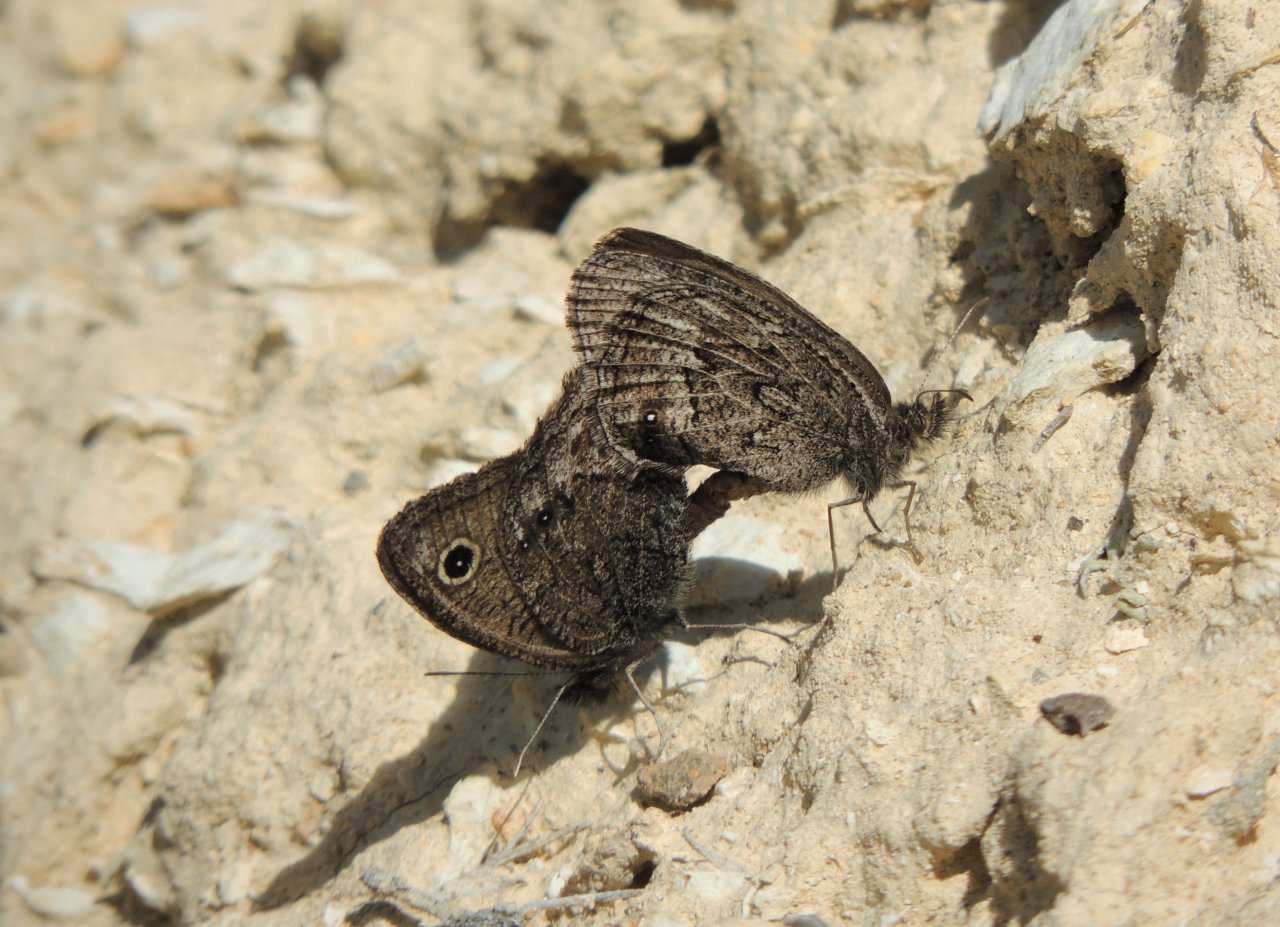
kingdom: Animalia
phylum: Arthropoda
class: Insecta
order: Lepidoptera
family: Nymphalidae
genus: Cercyonis
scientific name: Cercyonis oetus
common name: Small Wood-Nymph
